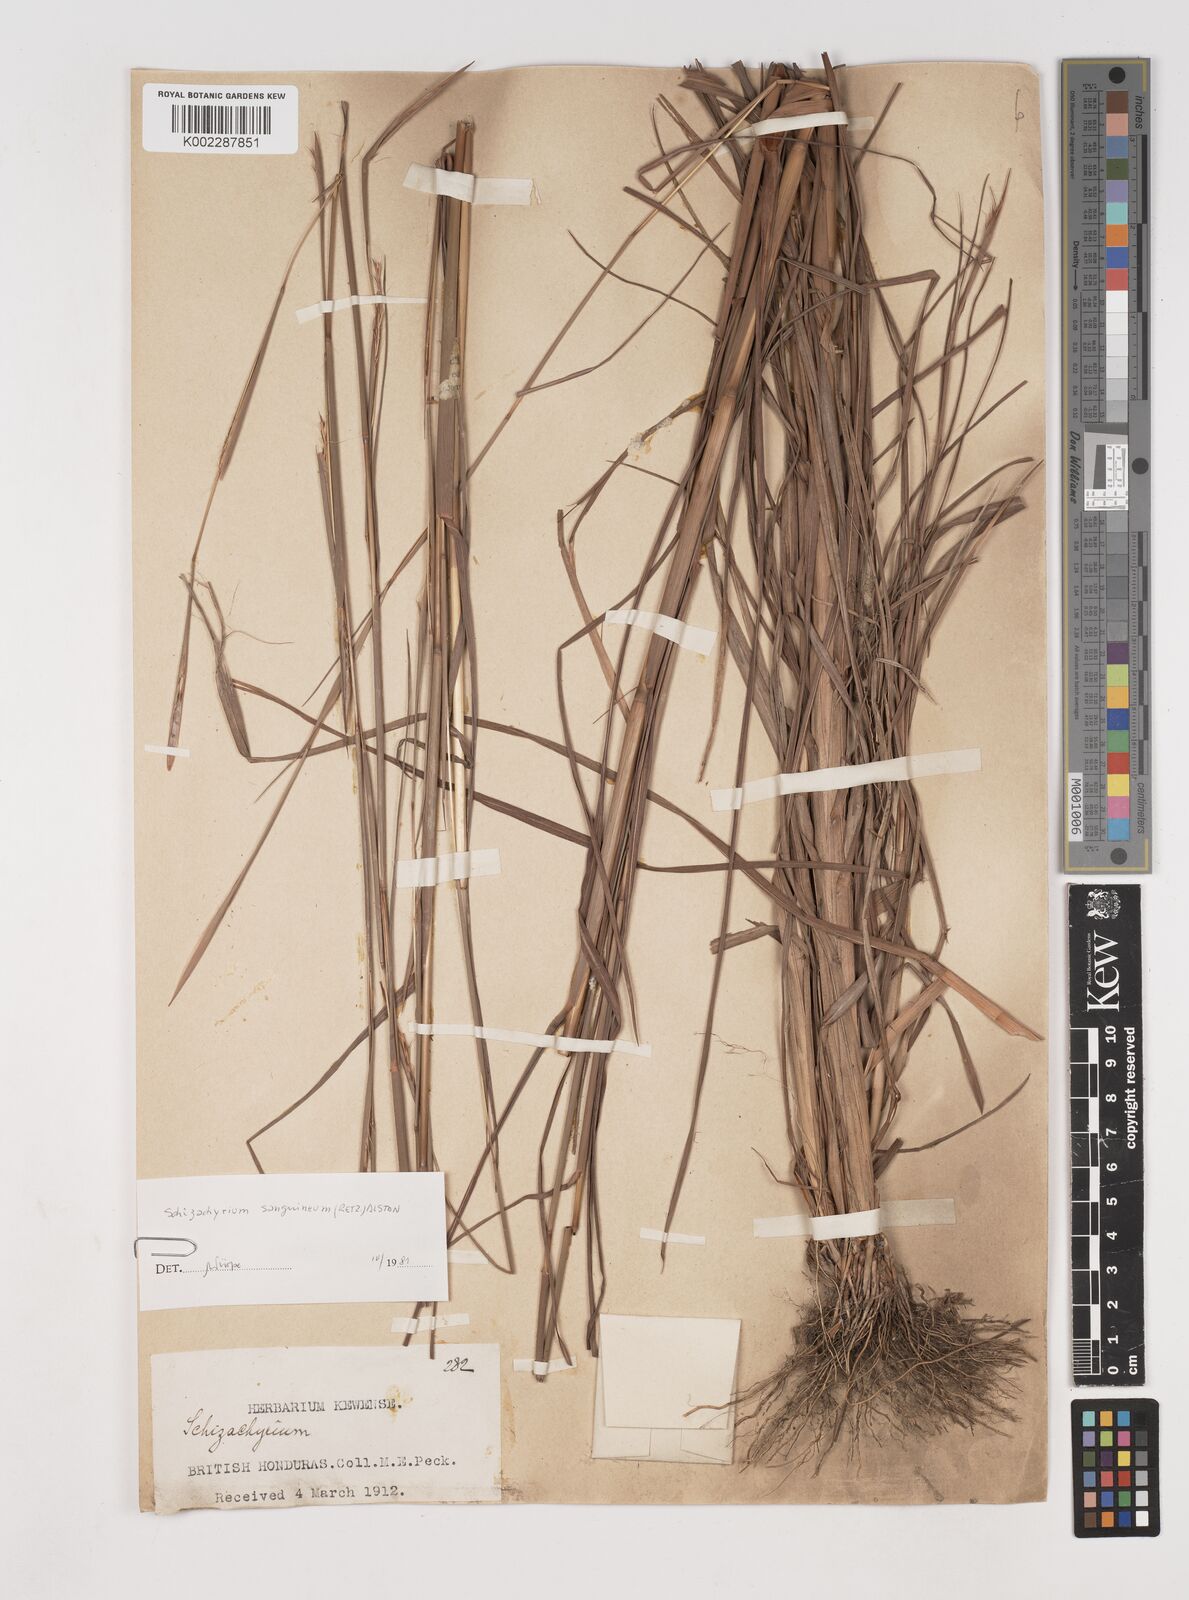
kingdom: Plantae
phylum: Tracheophyta
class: Liliopsida
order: Poales
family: Poaceae
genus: Schizachyrium
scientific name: Schizachyrium sanguineum
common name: Crimson bluestem
